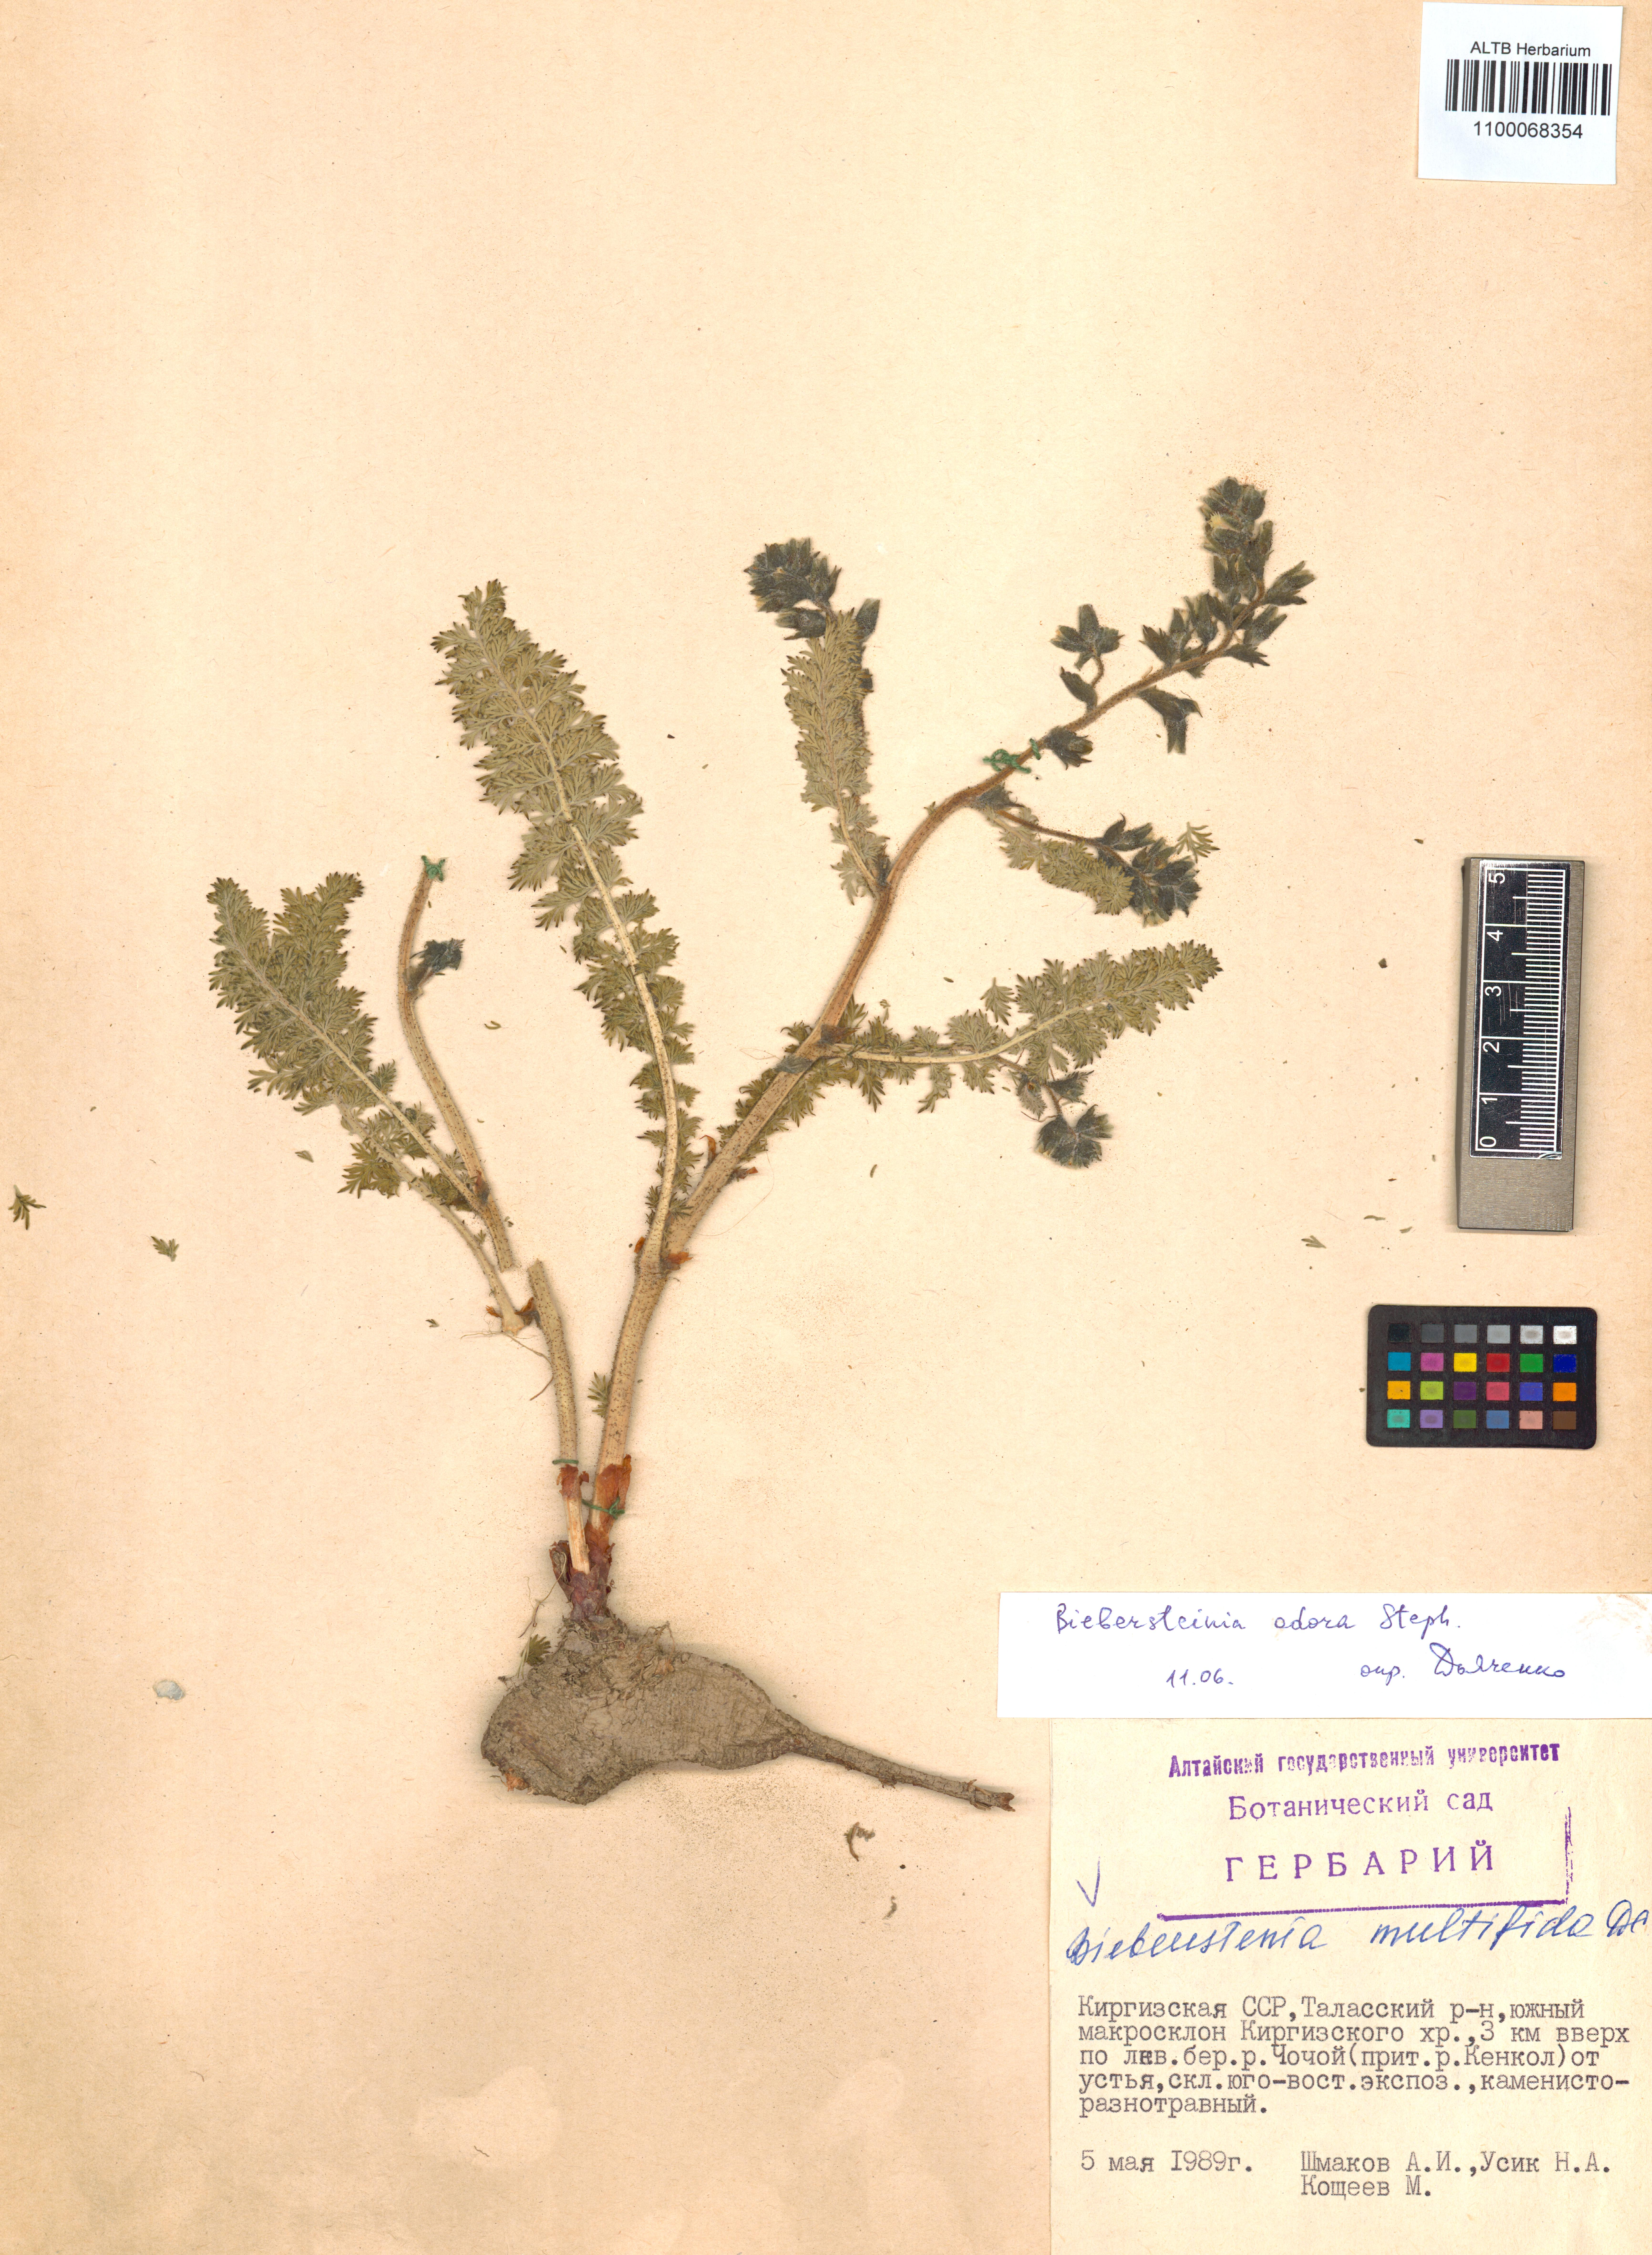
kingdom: Plantae
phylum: Tracheophyta
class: Magnoliopsida
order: Sapindales
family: Biebersteiniaceae
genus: Biebersteinia
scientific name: Biebersteinia multifida
